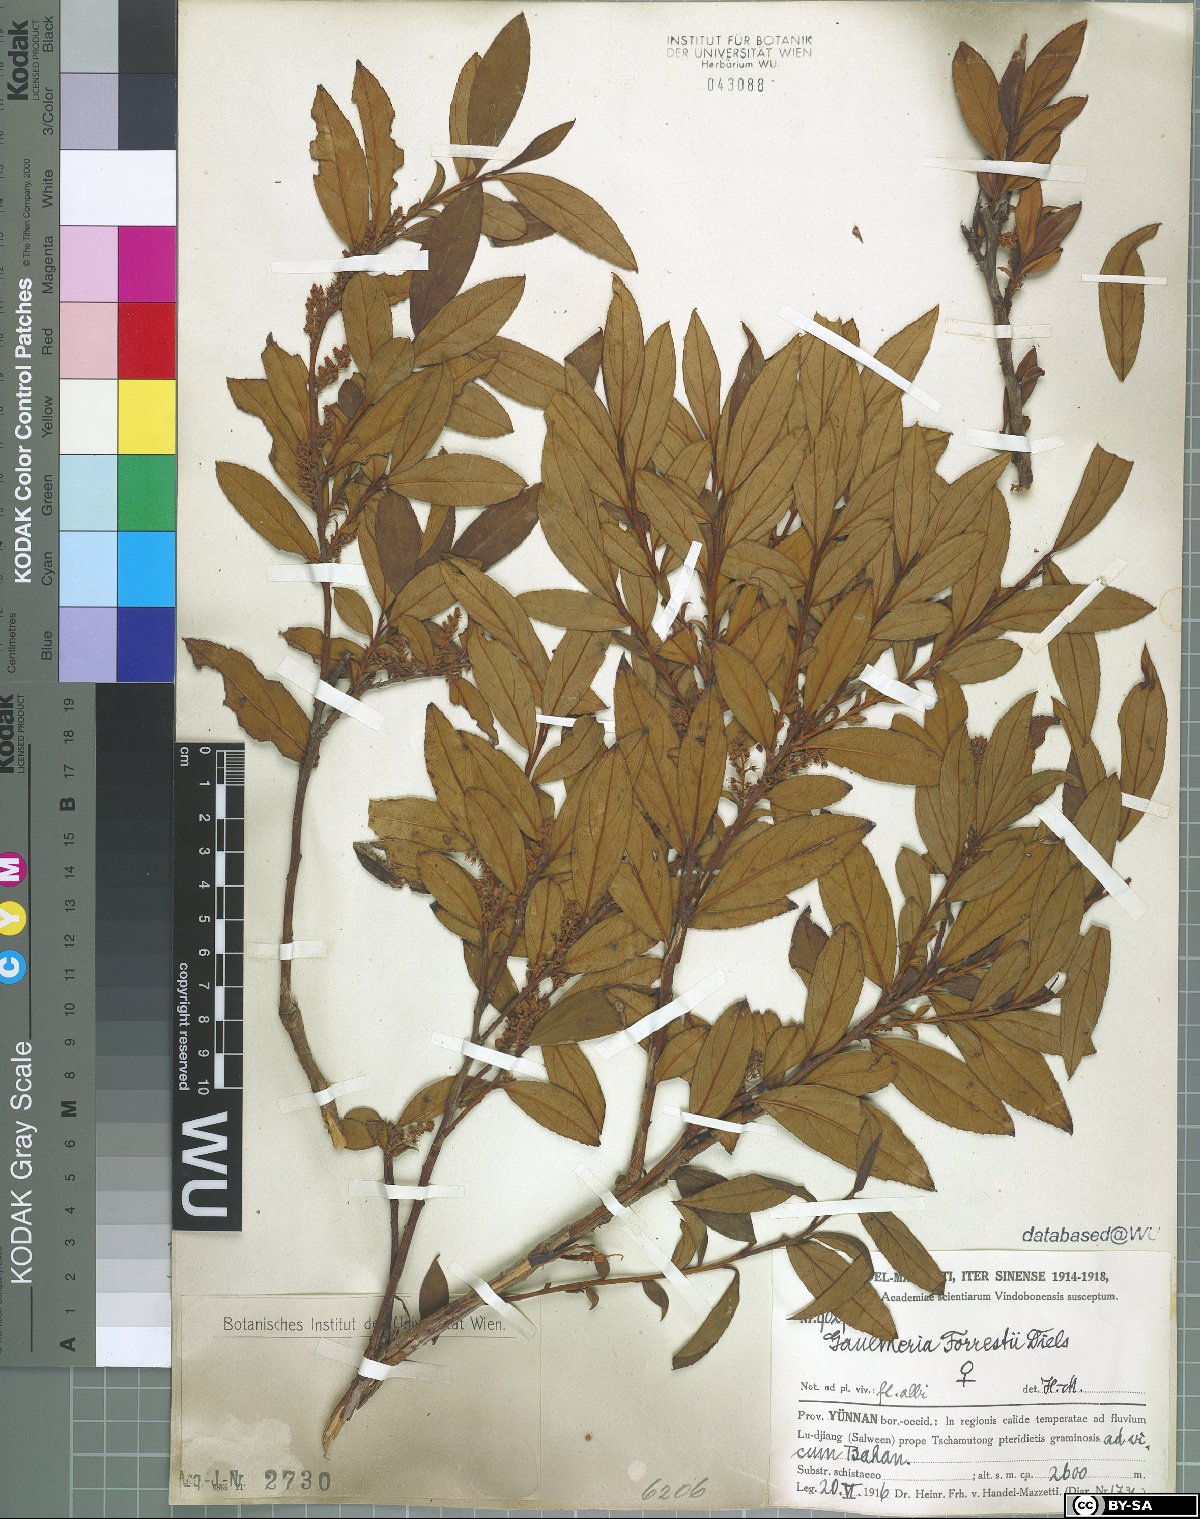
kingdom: Plantae
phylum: Tracheophyta
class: Magnoliopsida
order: Ericales
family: Ericaceae
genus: Gaultheria
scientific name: Gaultheria fragrantissima
